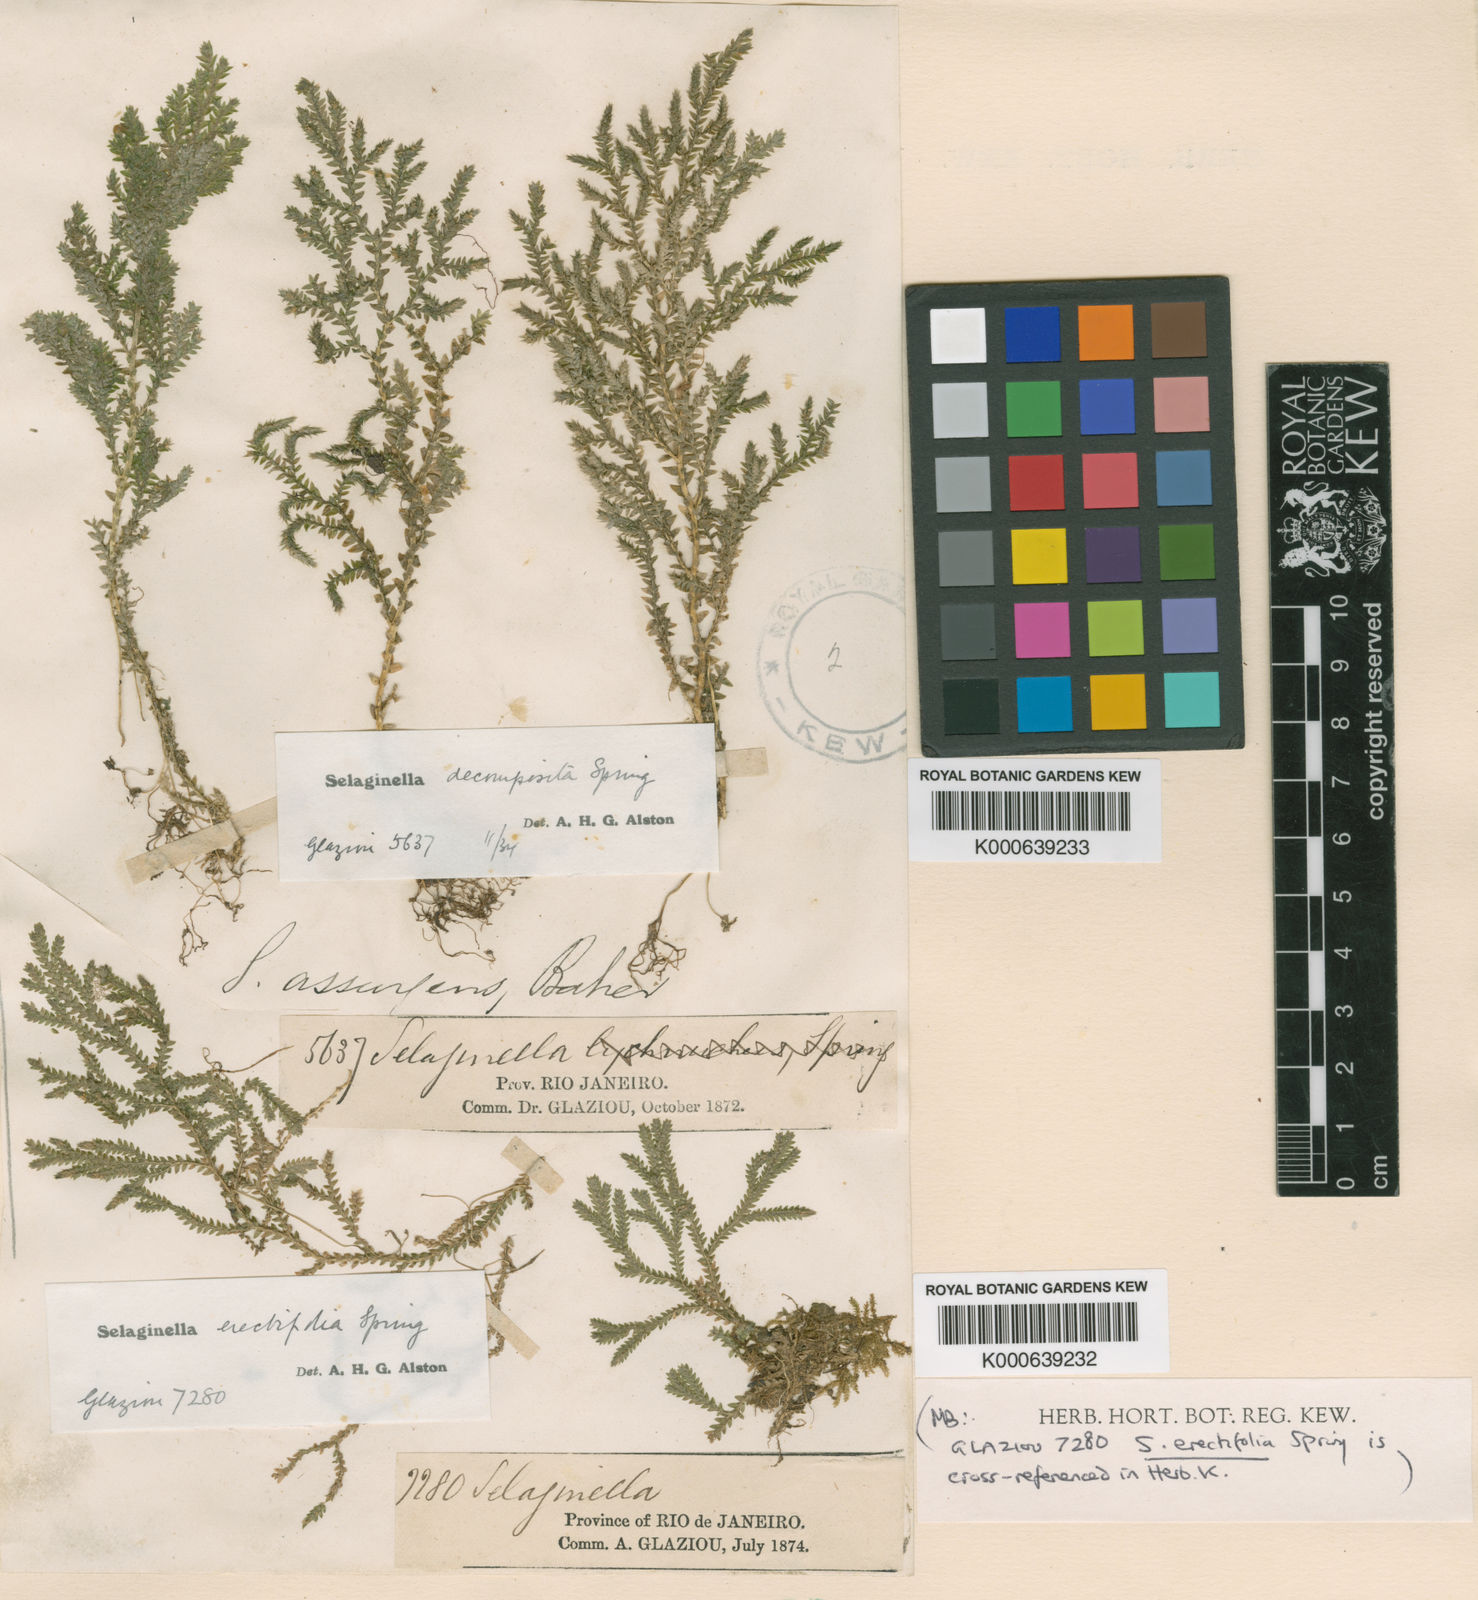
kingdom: Plantae
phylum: Tracheophyta
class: Lycopodiopsida
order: Selaginellales
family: Selaginellaceae
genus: Selaginella
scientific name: Selaginella erectifolia
